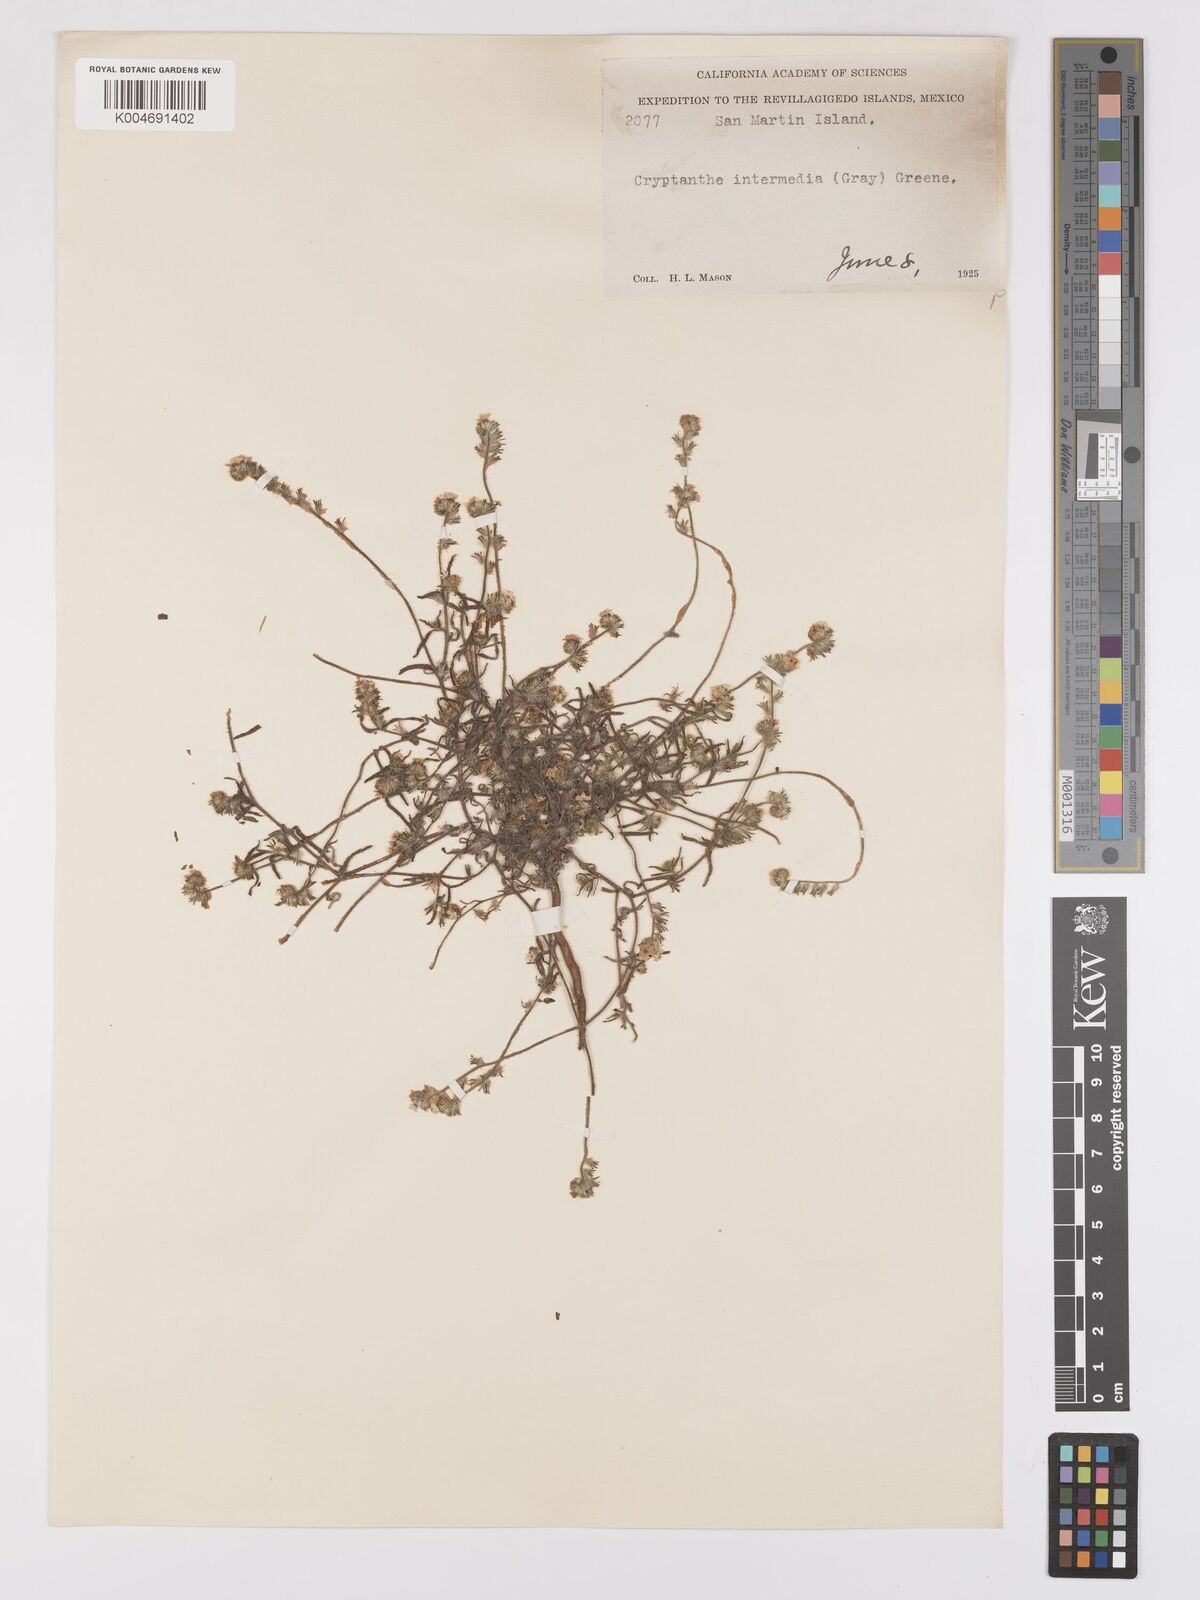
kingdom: Plantae
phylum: Tracheophyta
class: Magnoliopsida
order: Boraginales
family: Boraginaceae
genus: Cryptantha
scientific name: Cryptantha intermedia
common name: Clearwater cryptantha
